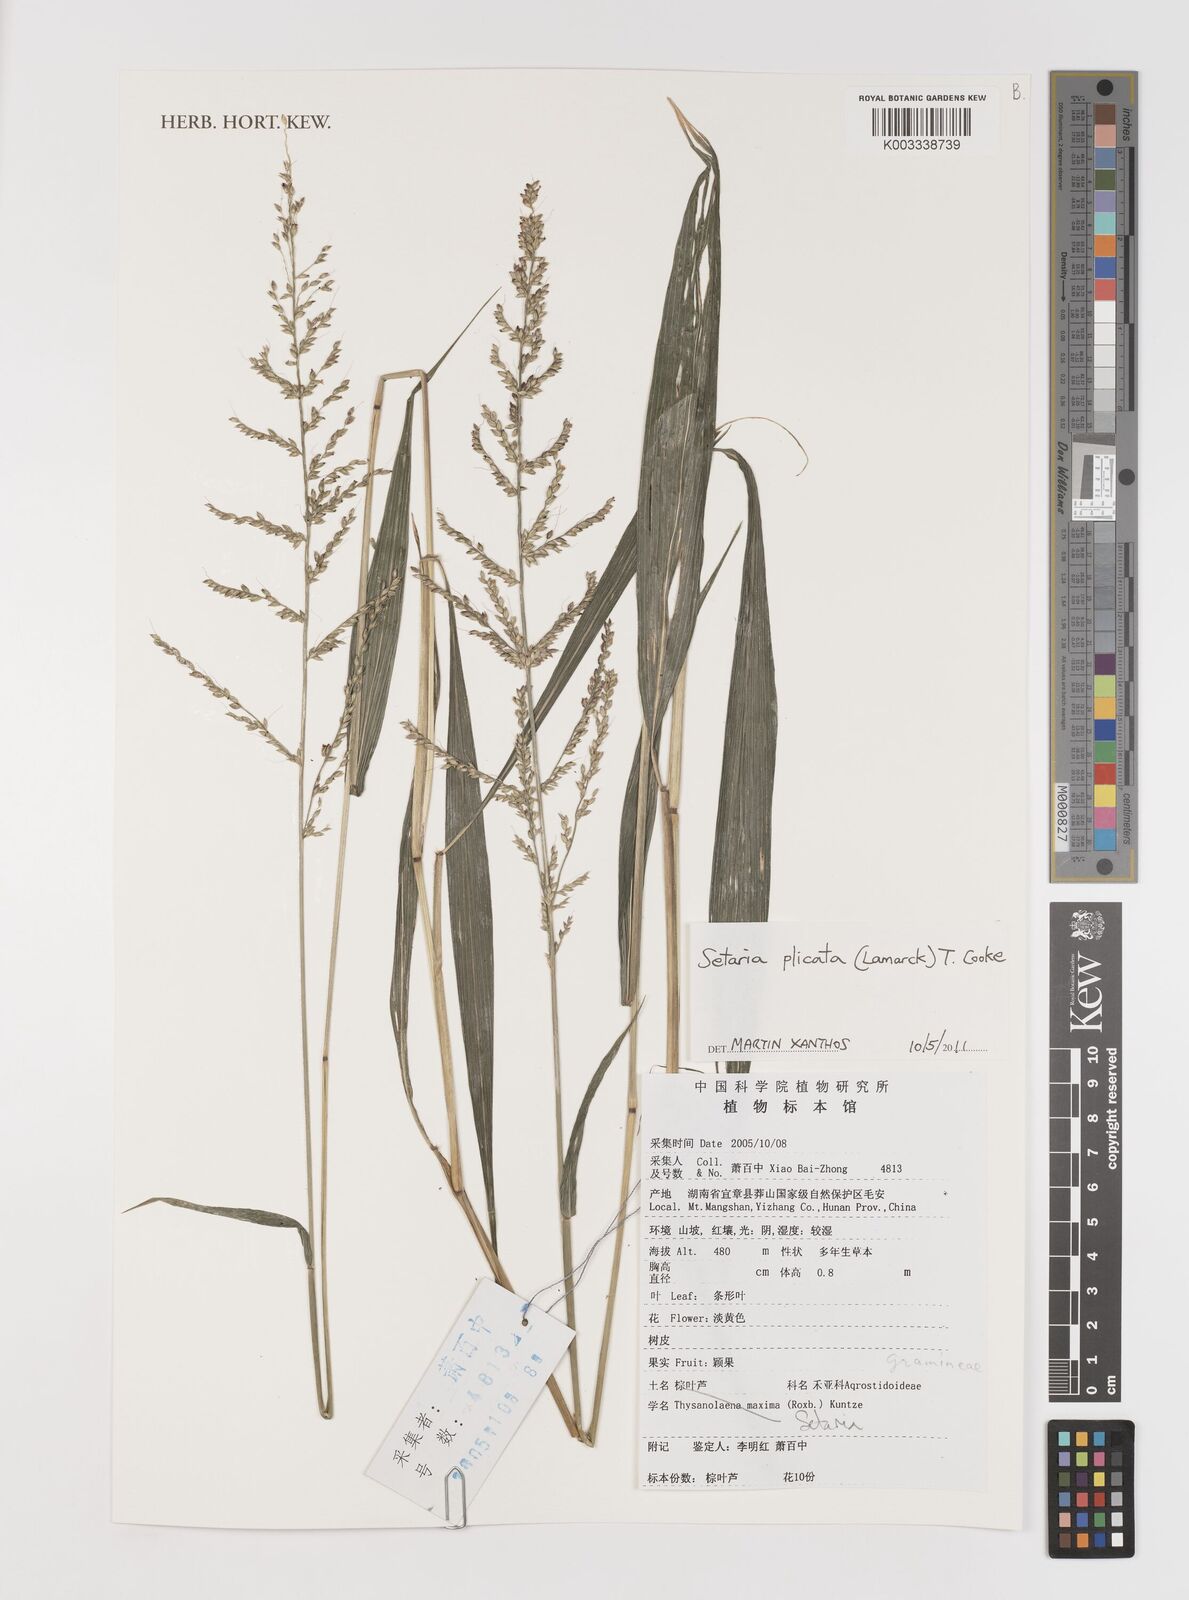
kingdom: Plantae
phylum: Tracheophyta
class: Liliopsida
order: Poales
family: Poaceae
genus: Setaria
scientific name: Setaria plicata
